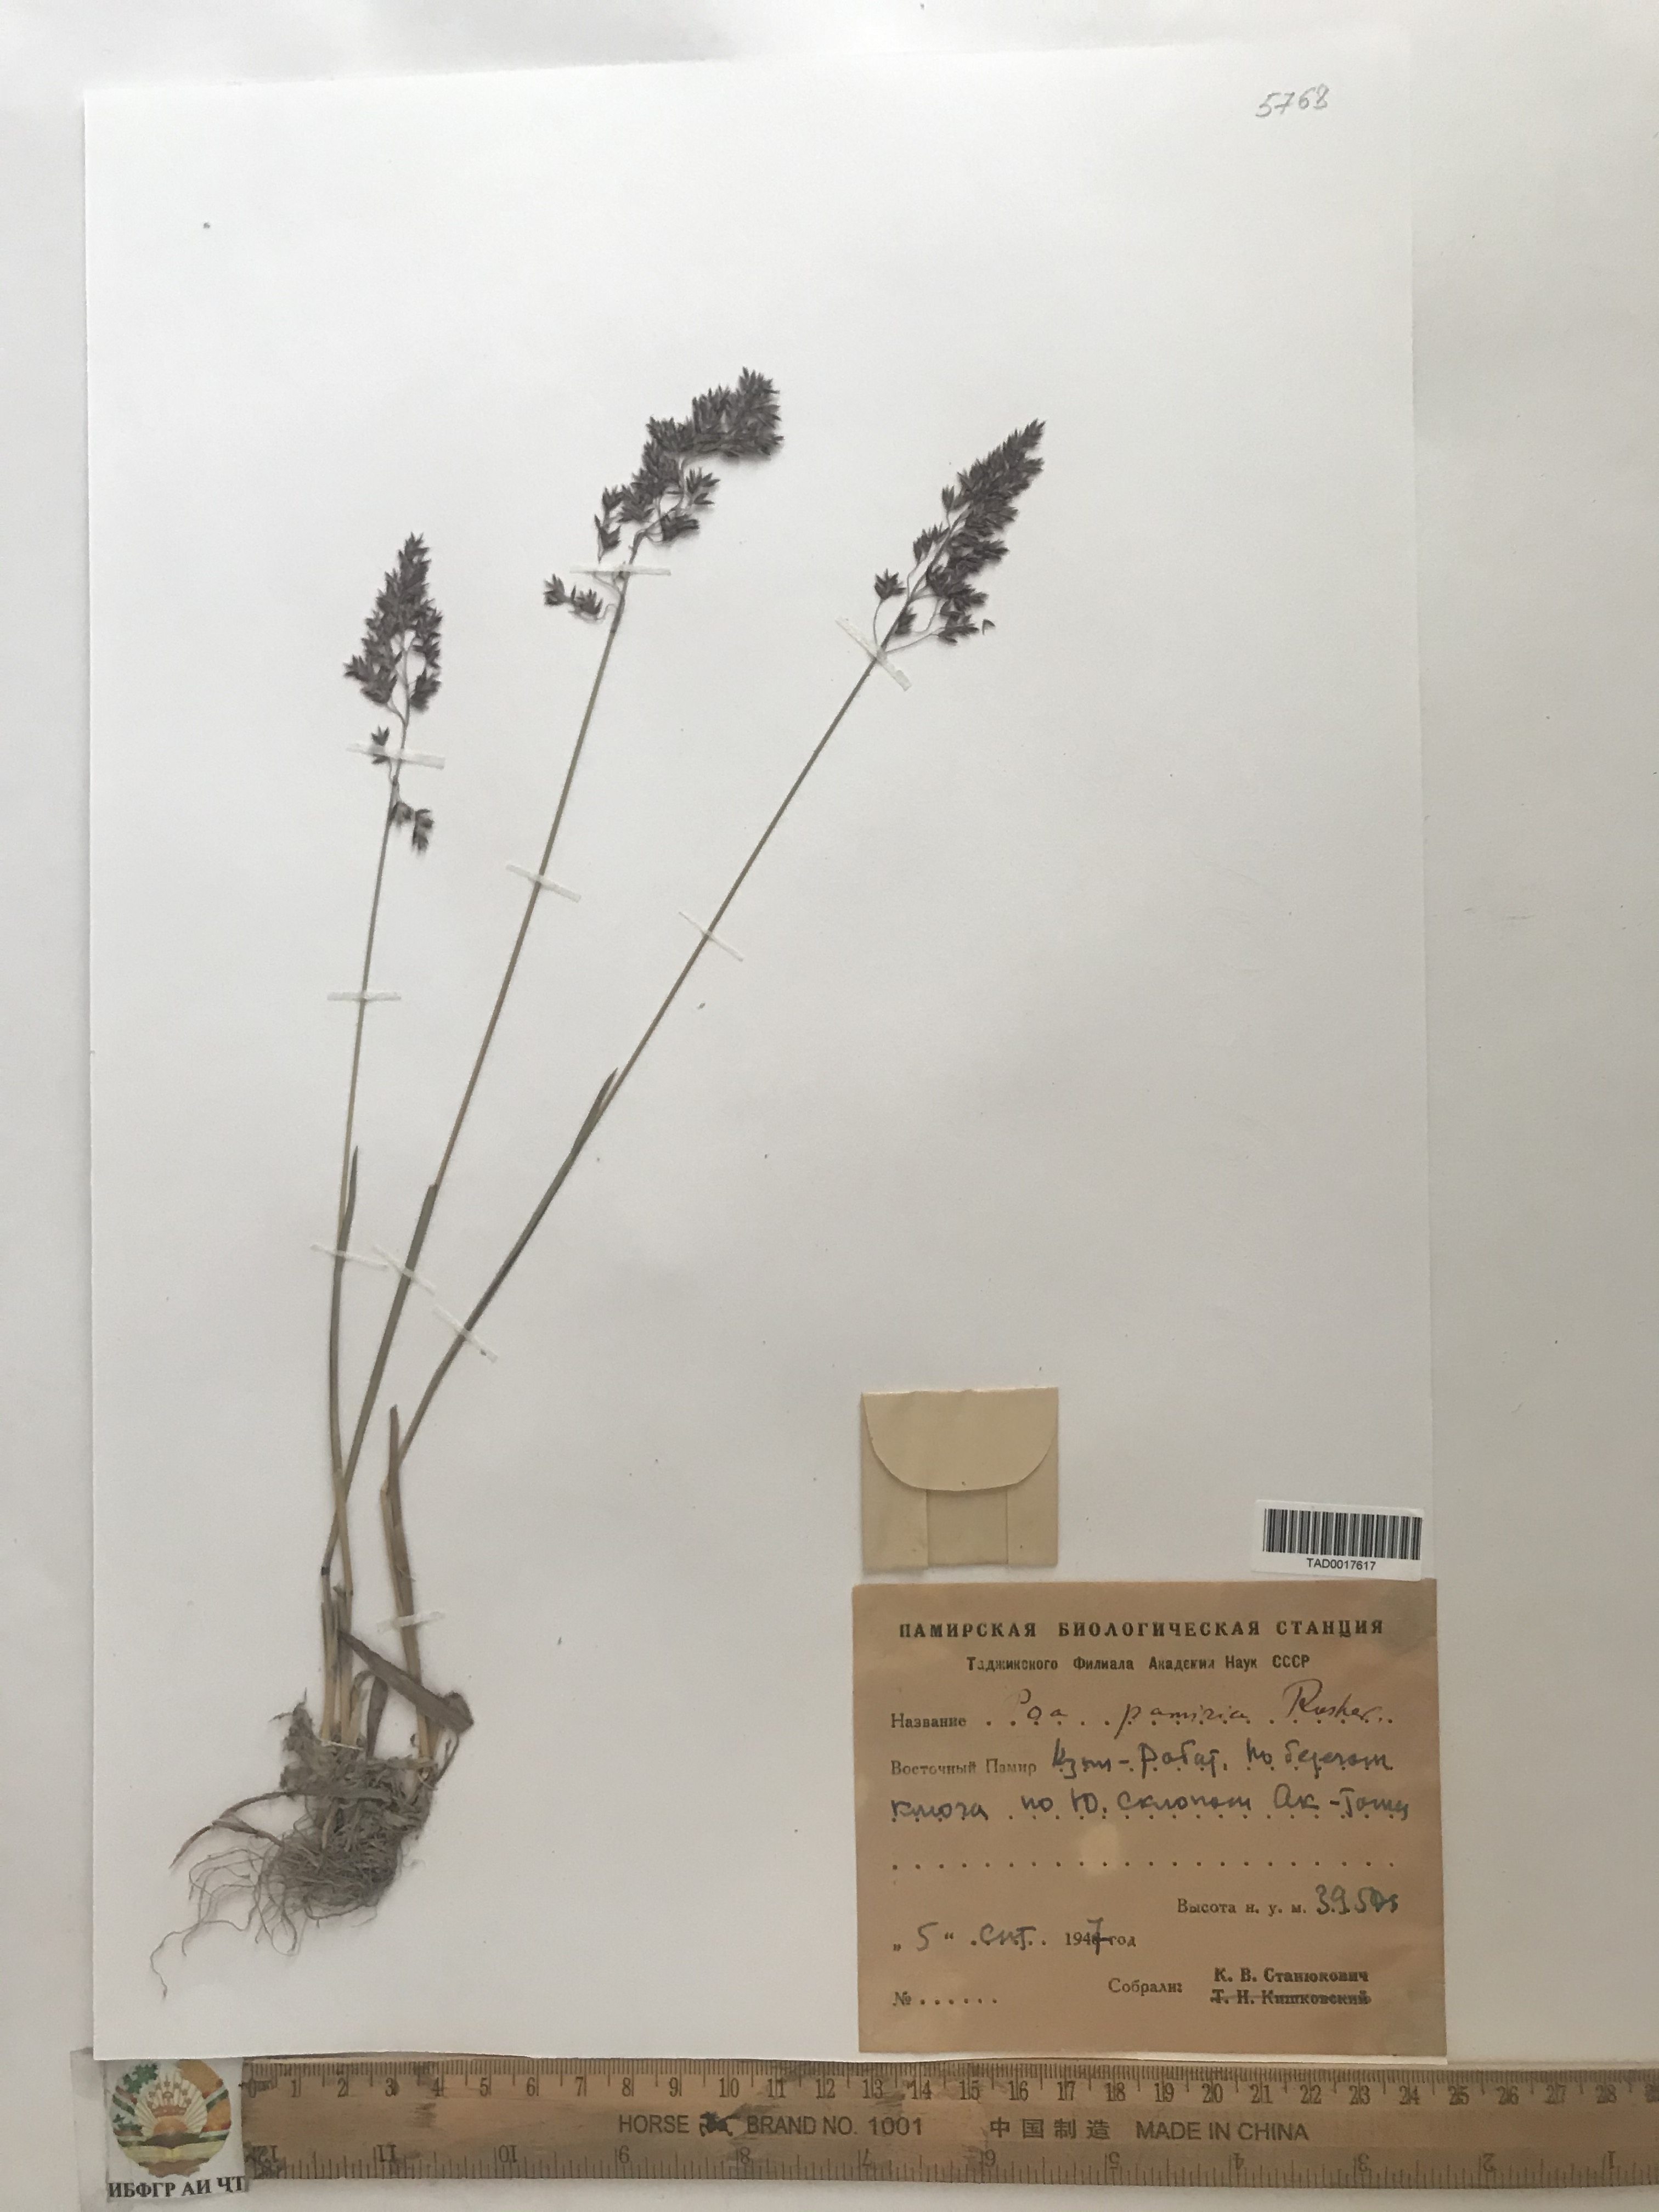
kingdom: Plantae
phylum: Tracheophyta
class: Liliopsida
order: Poales
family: Poaceae
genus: Poa
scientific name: Poa tianschanica
